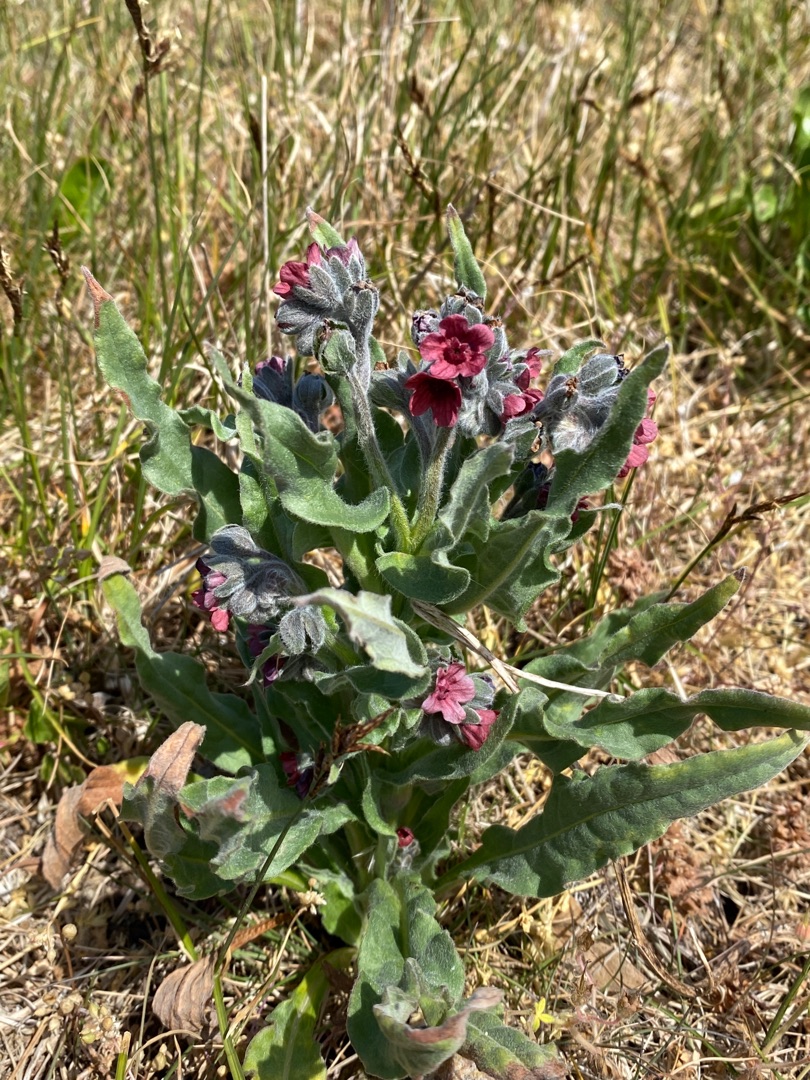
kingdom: Plantae
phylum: Tracheophyta
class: Magnoliopsida
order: Boraginales
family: Boraginaceae
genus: Cynoglossum
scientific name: Cynoglossum officinale
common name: Hundetunge
